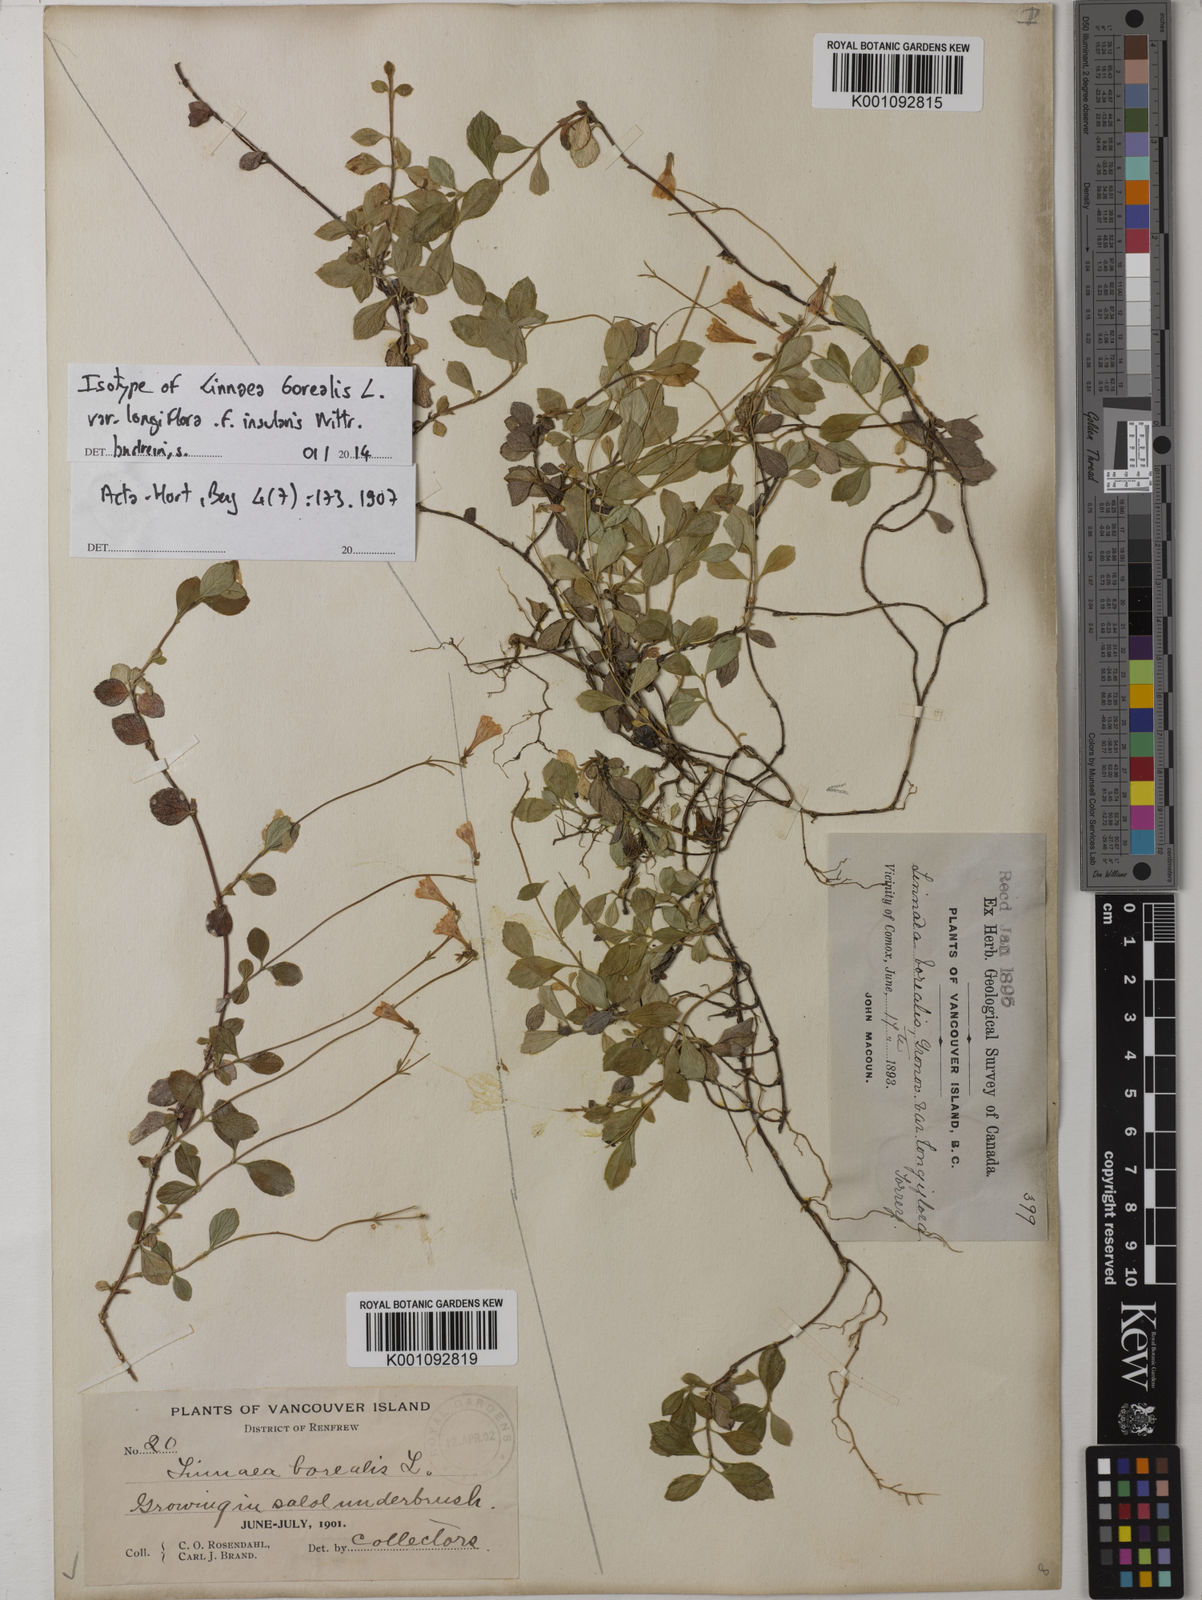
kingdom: Plantae
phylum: Tracheophyta
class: Magnoliopsida
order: Dipsacales
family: Caprifoliaceae
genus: Linnaea
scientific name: Linnaea borealis
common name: Twinflower
